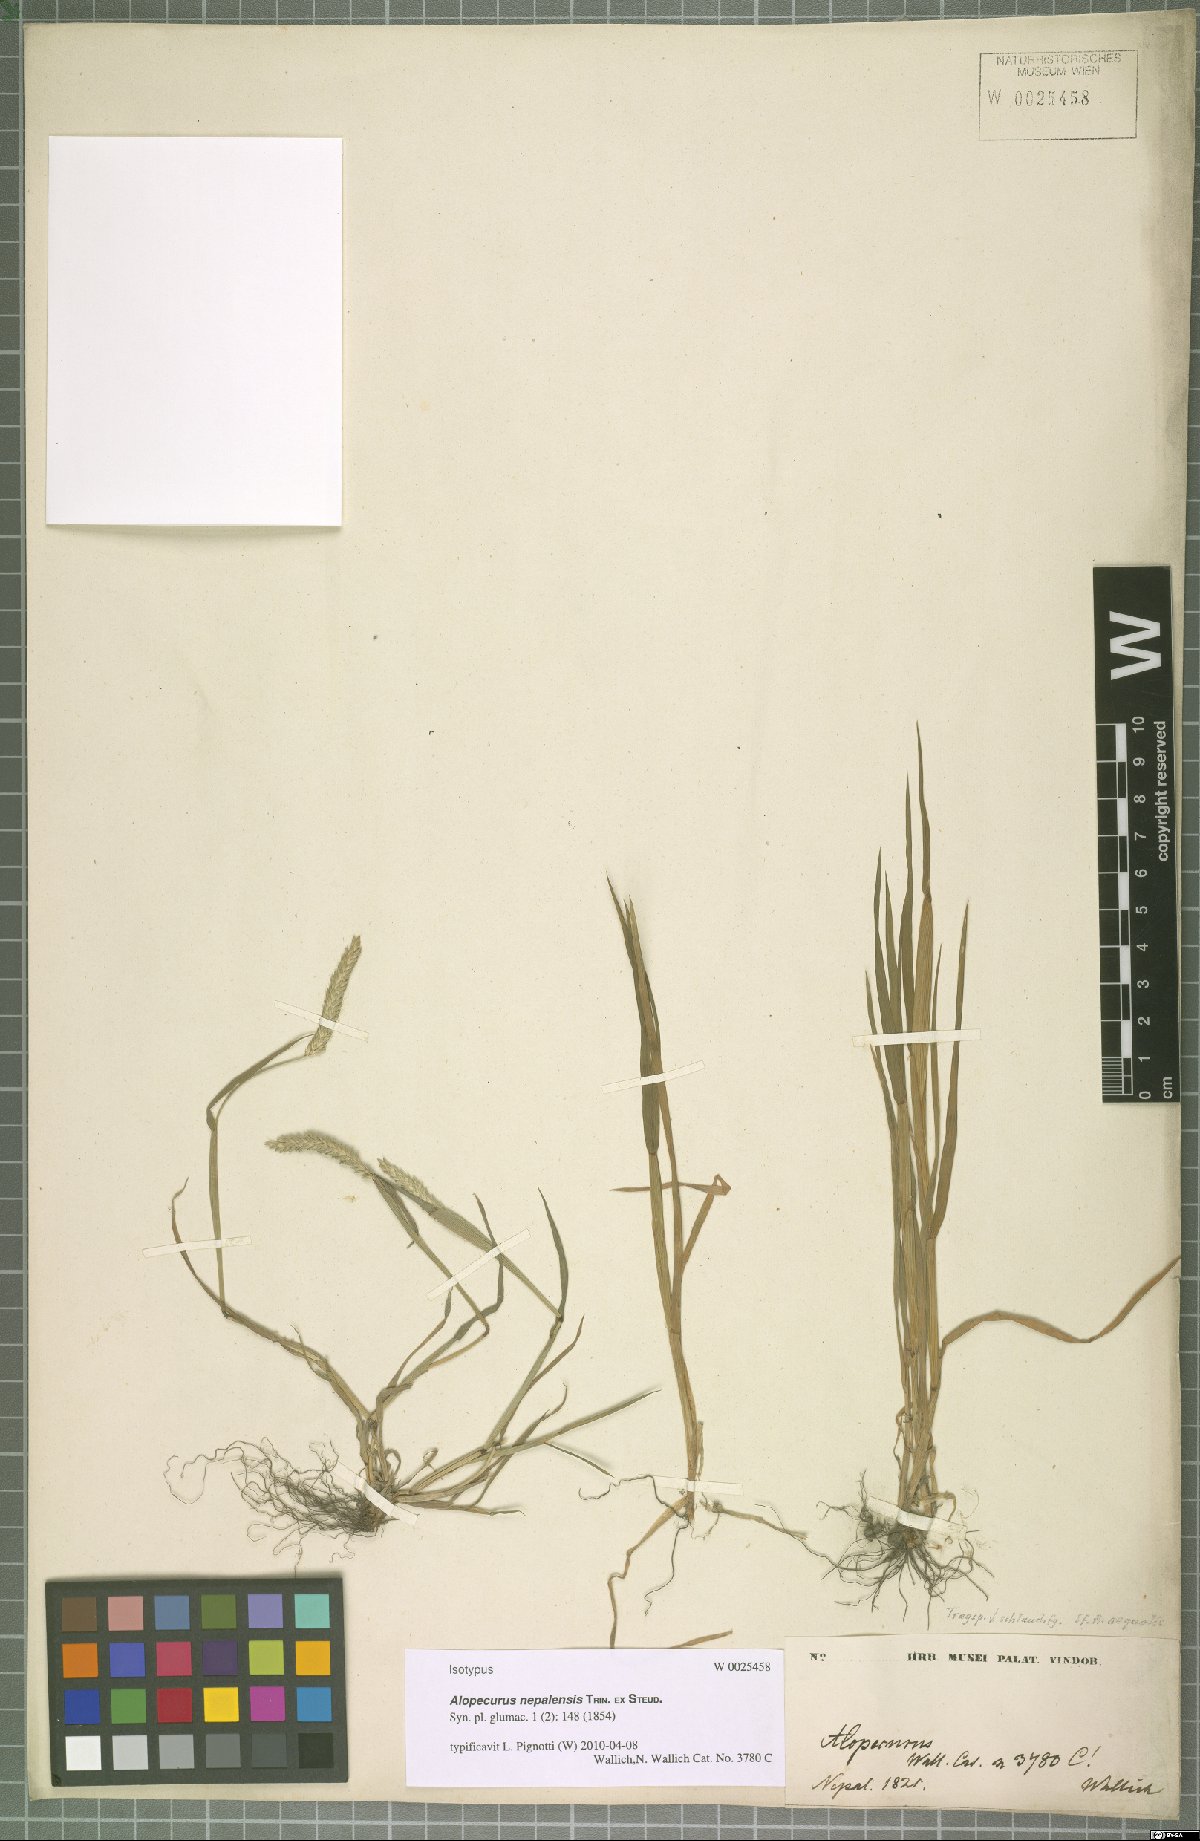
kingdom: Plantae
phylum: Tracheophyta
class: Liliopsida
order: Poales
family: Poaceae
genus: Alopecurus
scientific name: Alopecurus nepalensis
